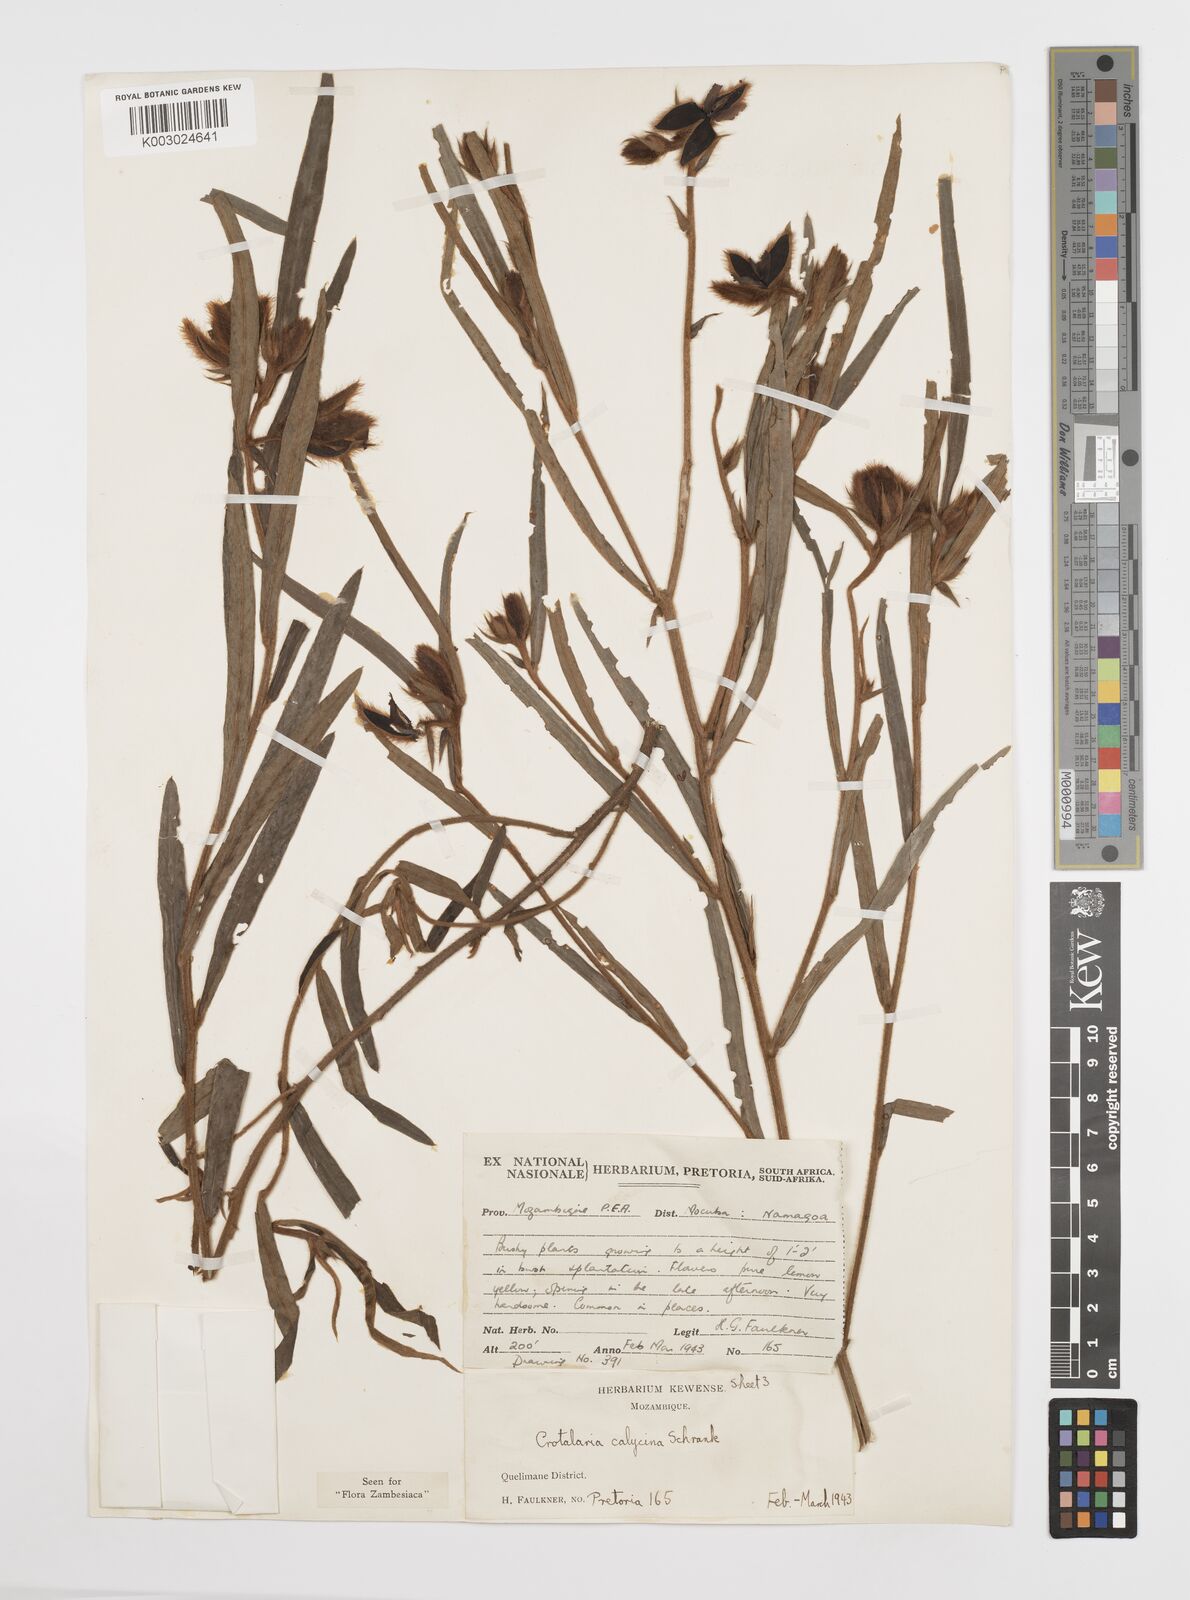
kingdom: Plantae
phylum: Tracheophyta
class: Magnoliopsida
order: Fabales
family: Fabaceae
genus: Crotalaria
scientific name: Crotalaria calycina
